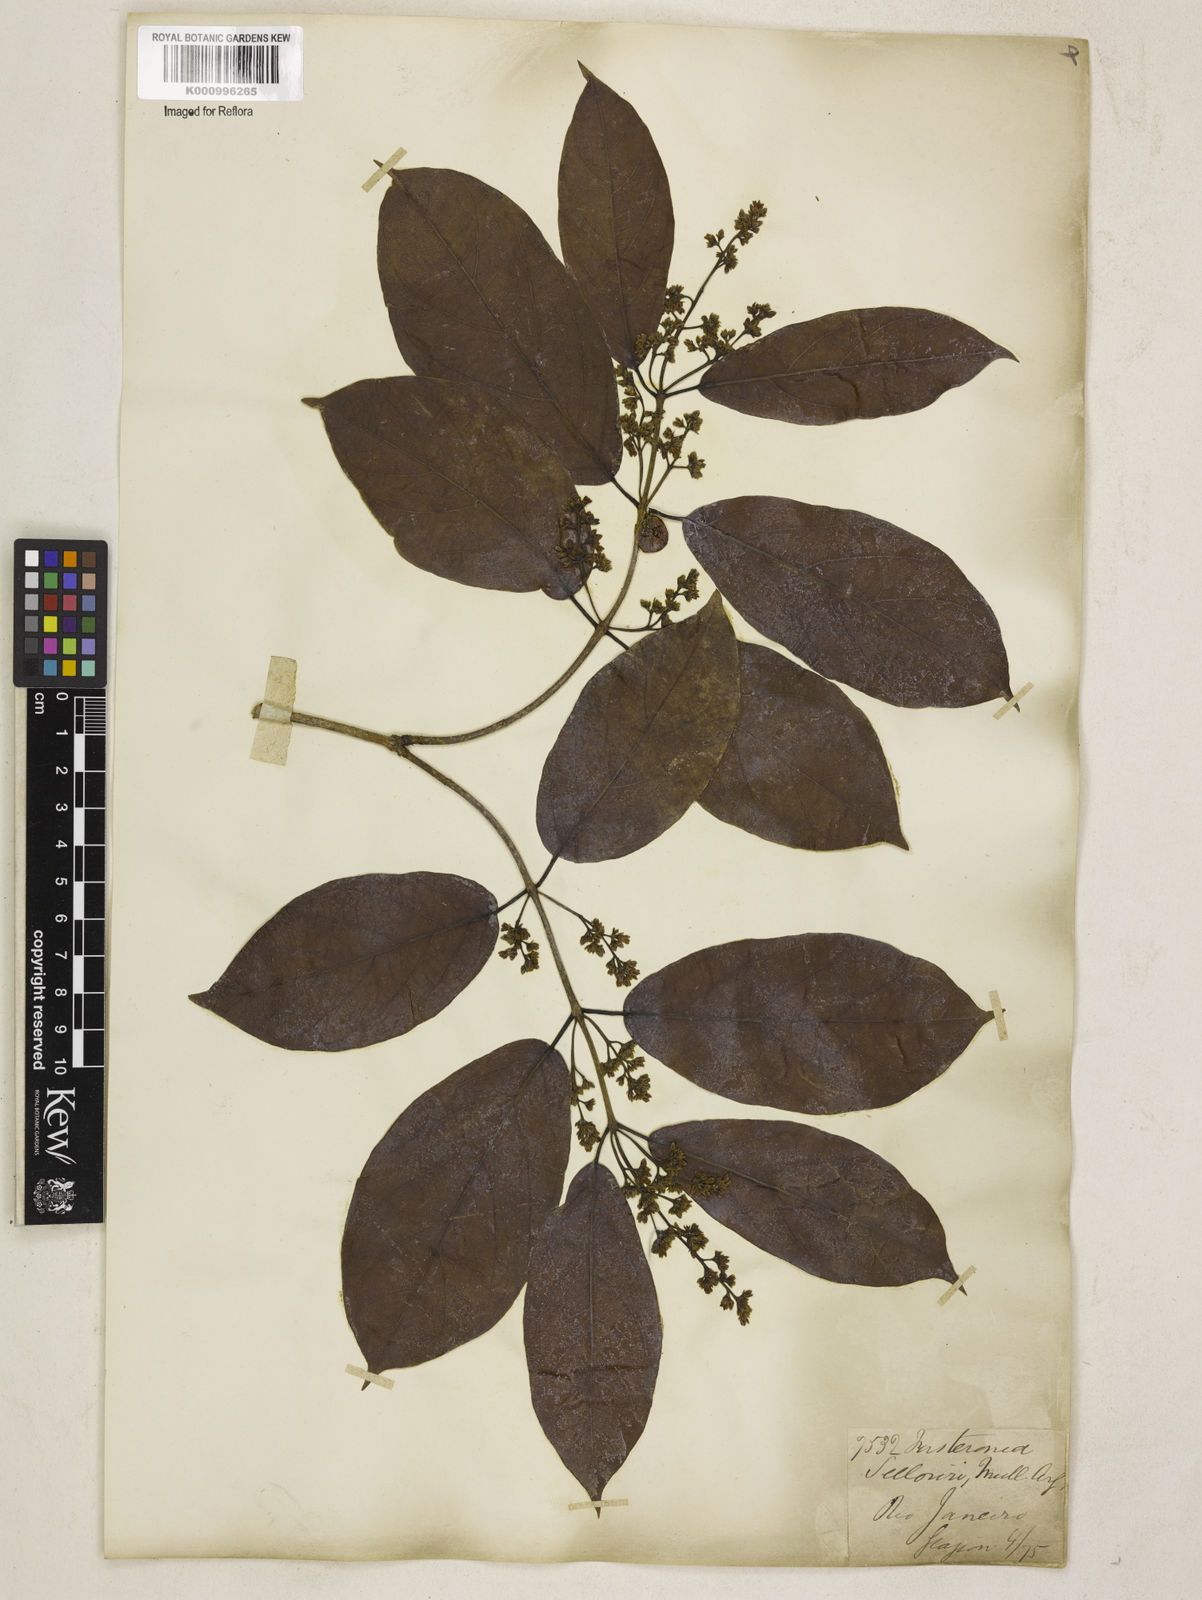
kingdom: Plantae
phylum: Tracheophyta
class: Magnoliopsida
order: Gentianales
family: Apocynaceae
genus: Forsteronia
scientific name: Forsteronia
